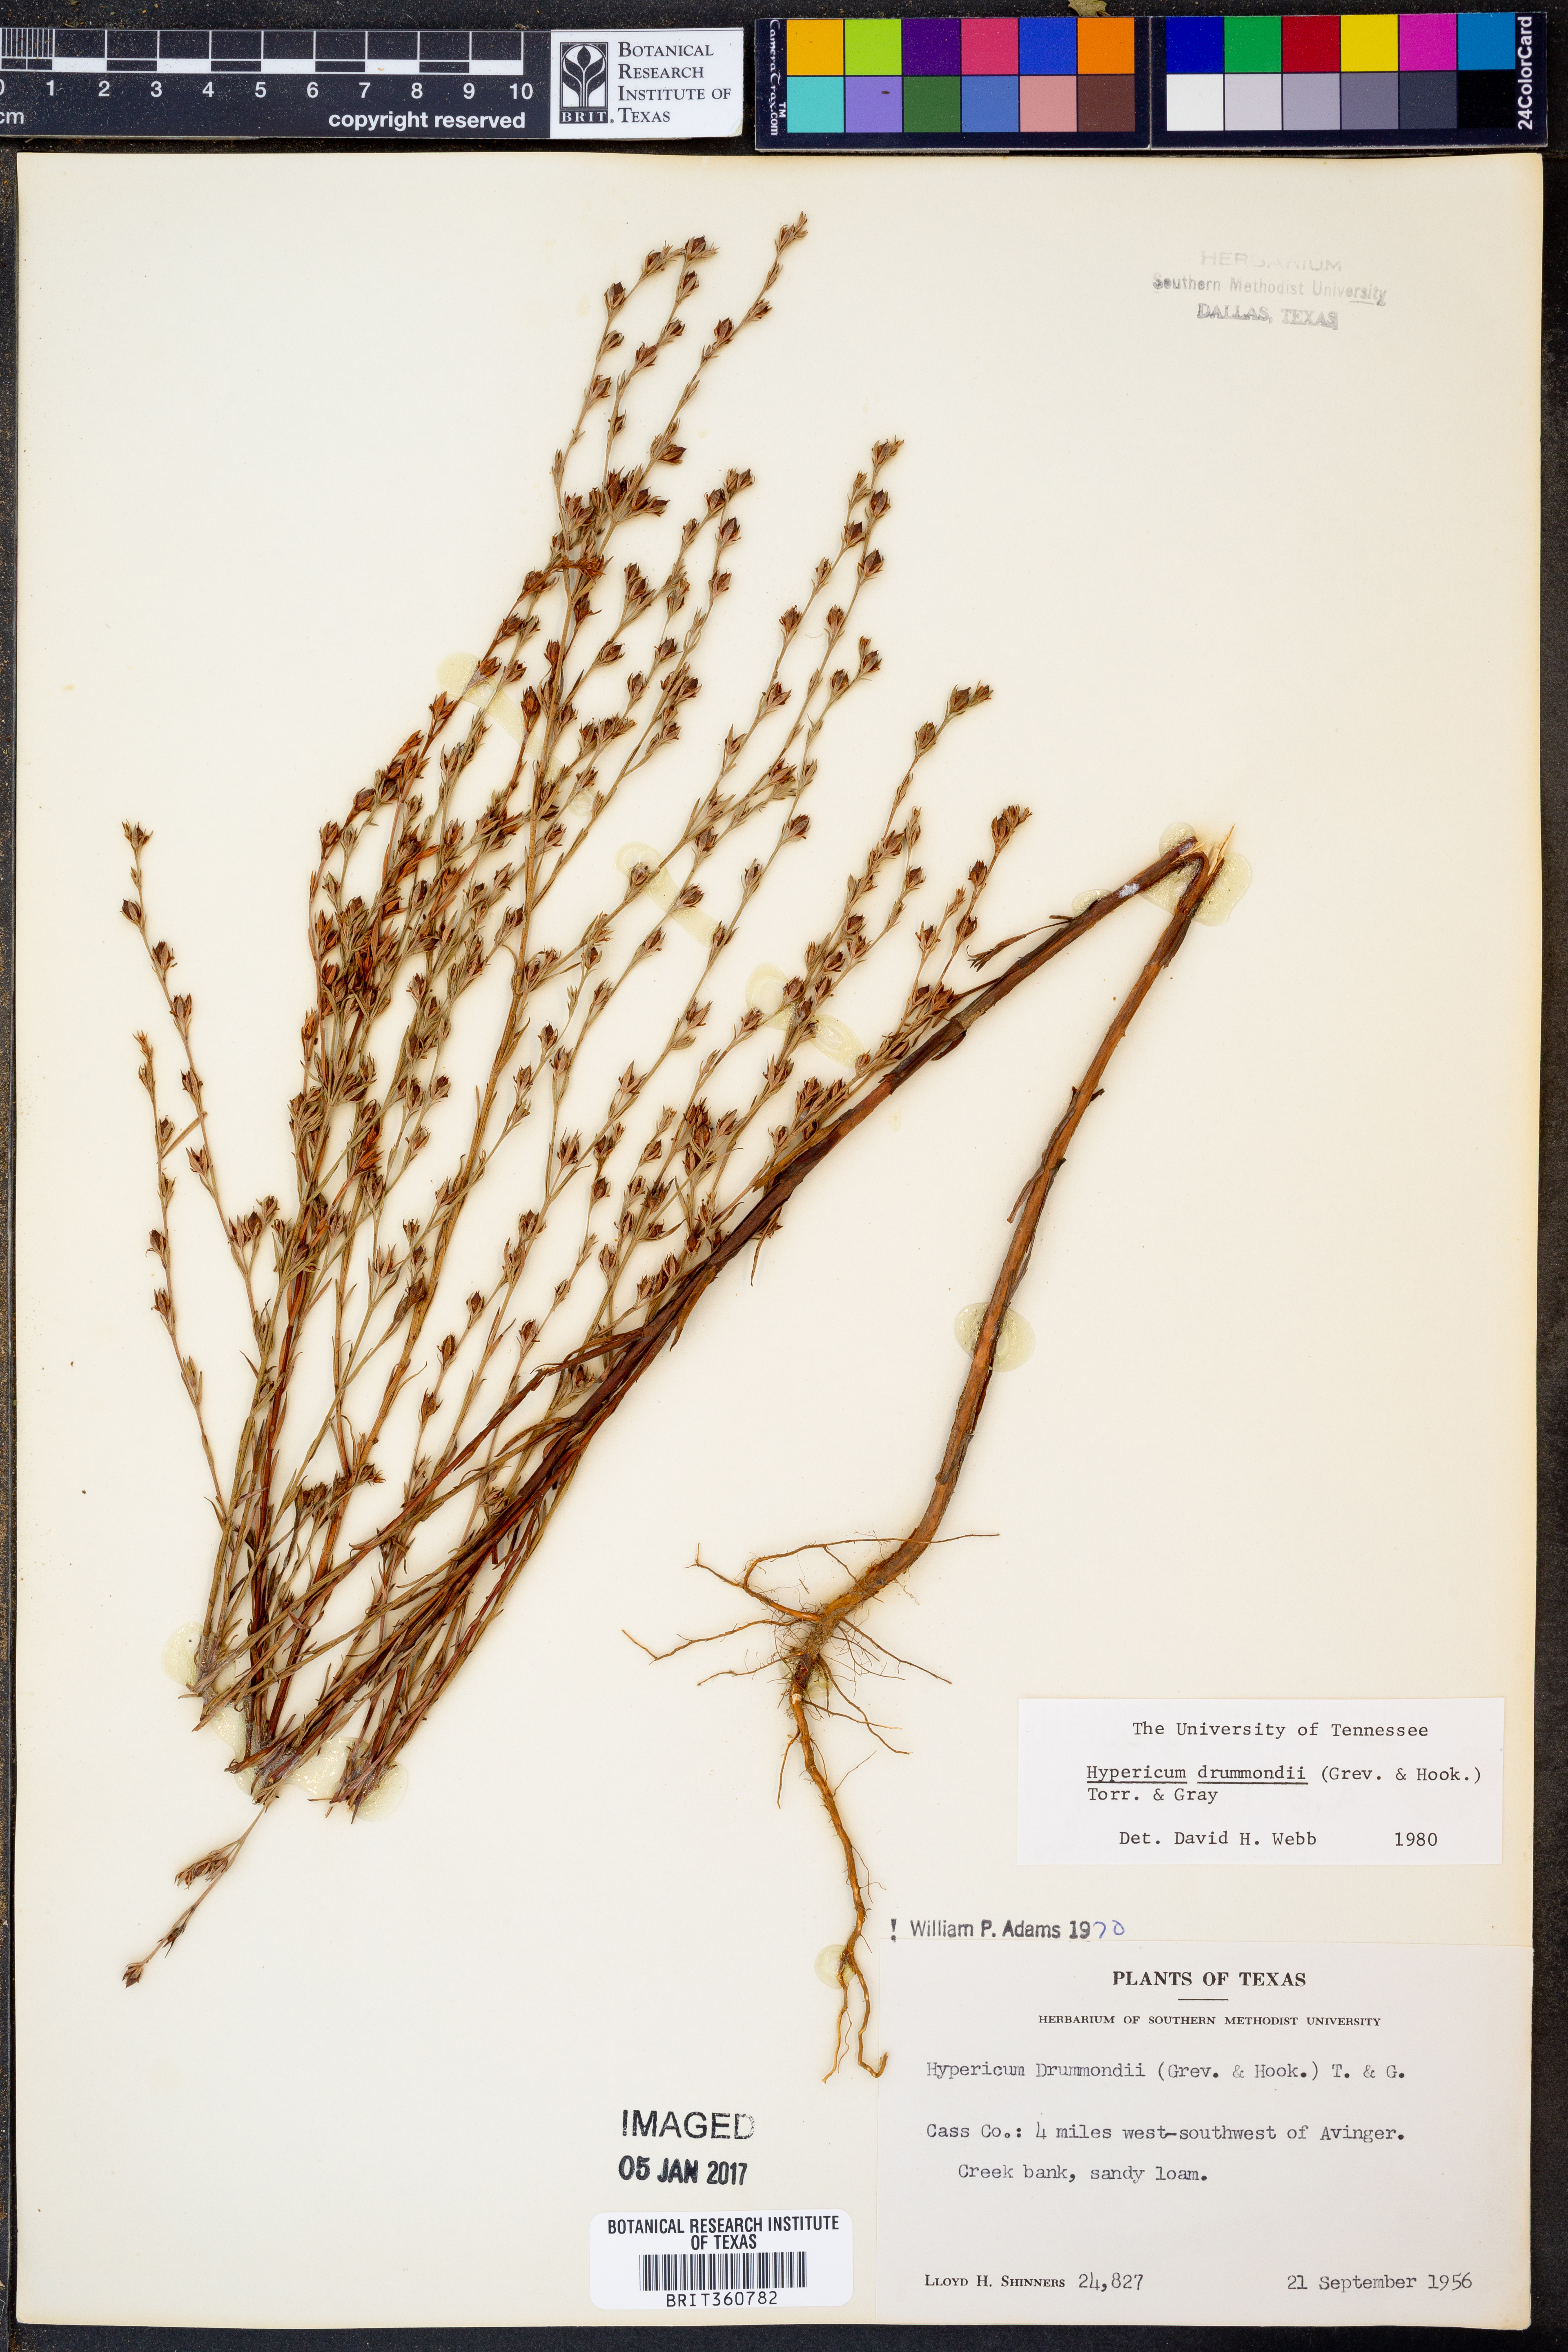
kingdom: Plantae
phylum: Tracheophyta
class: Magnoliopsida
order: Malpighiales
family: Hypericaceae
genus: Hypericum
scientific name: Hypericum drummondii
